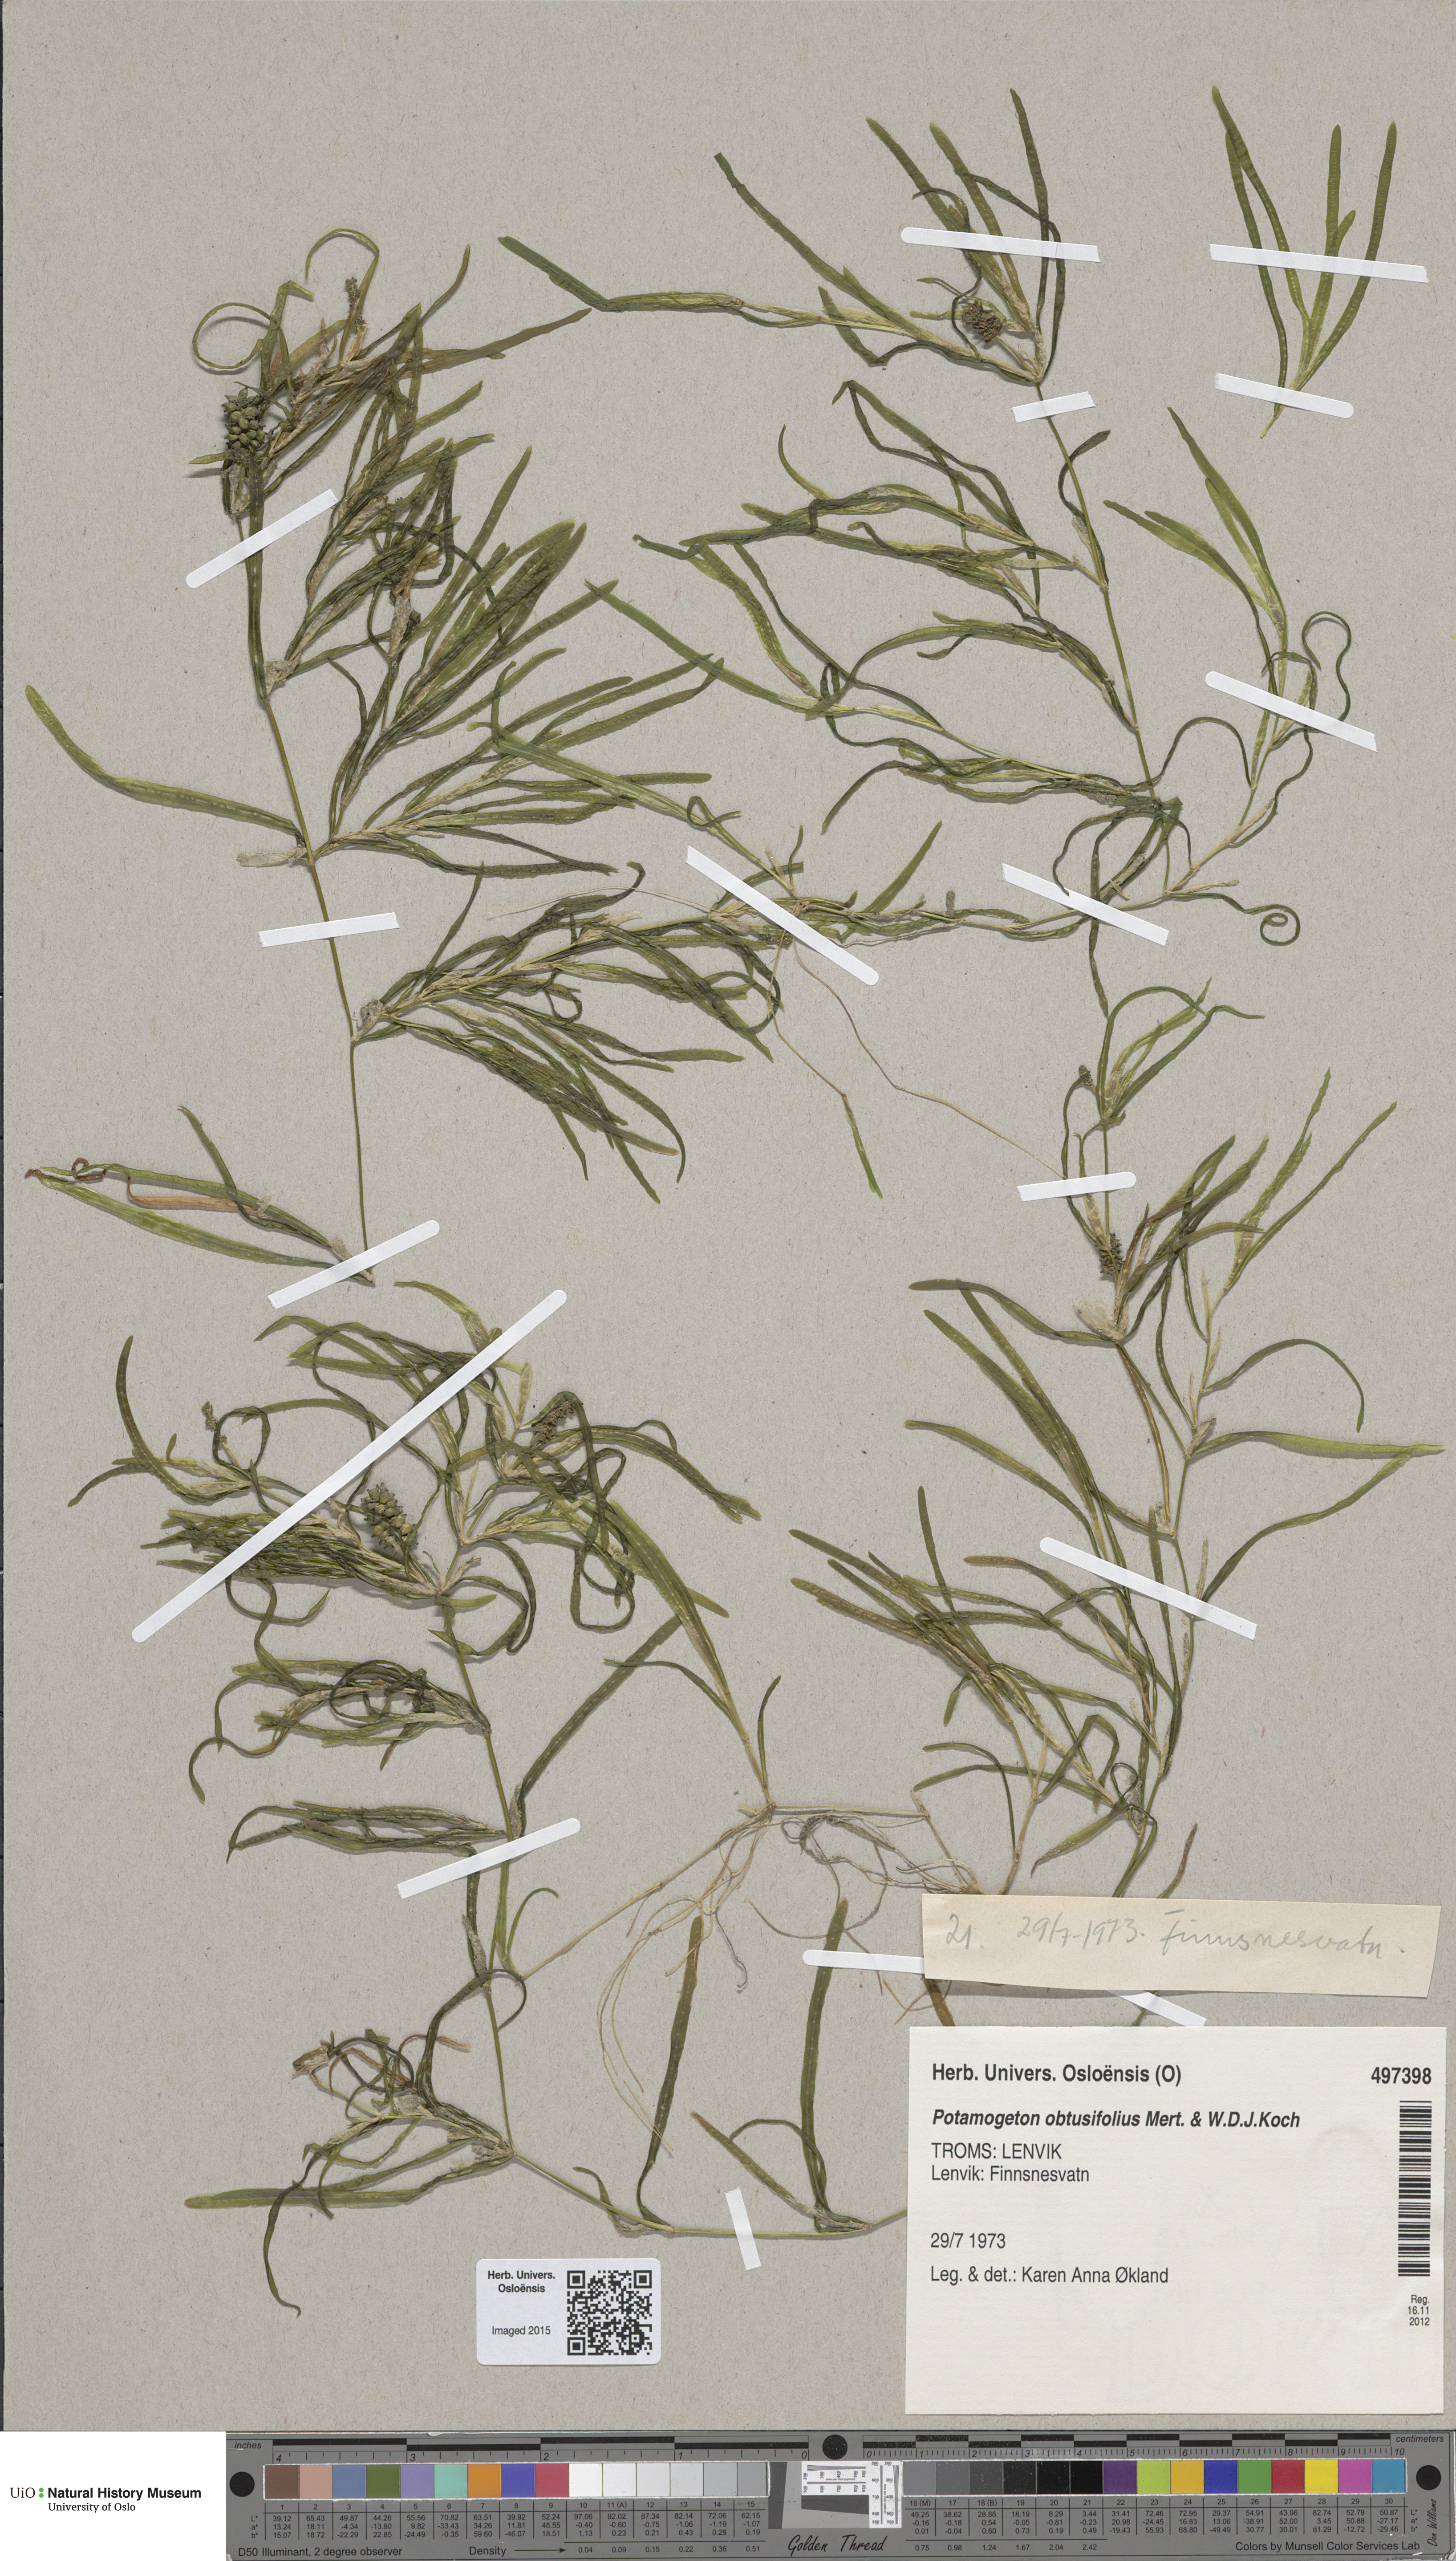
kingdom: Plantae
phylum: Tracheophyta
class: Liliopsida
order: Alismatales
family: Potamogetonaceae
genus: Potamogeton
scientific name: Potamogeton obtusifolius
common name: Blunt-leaved pondweed
